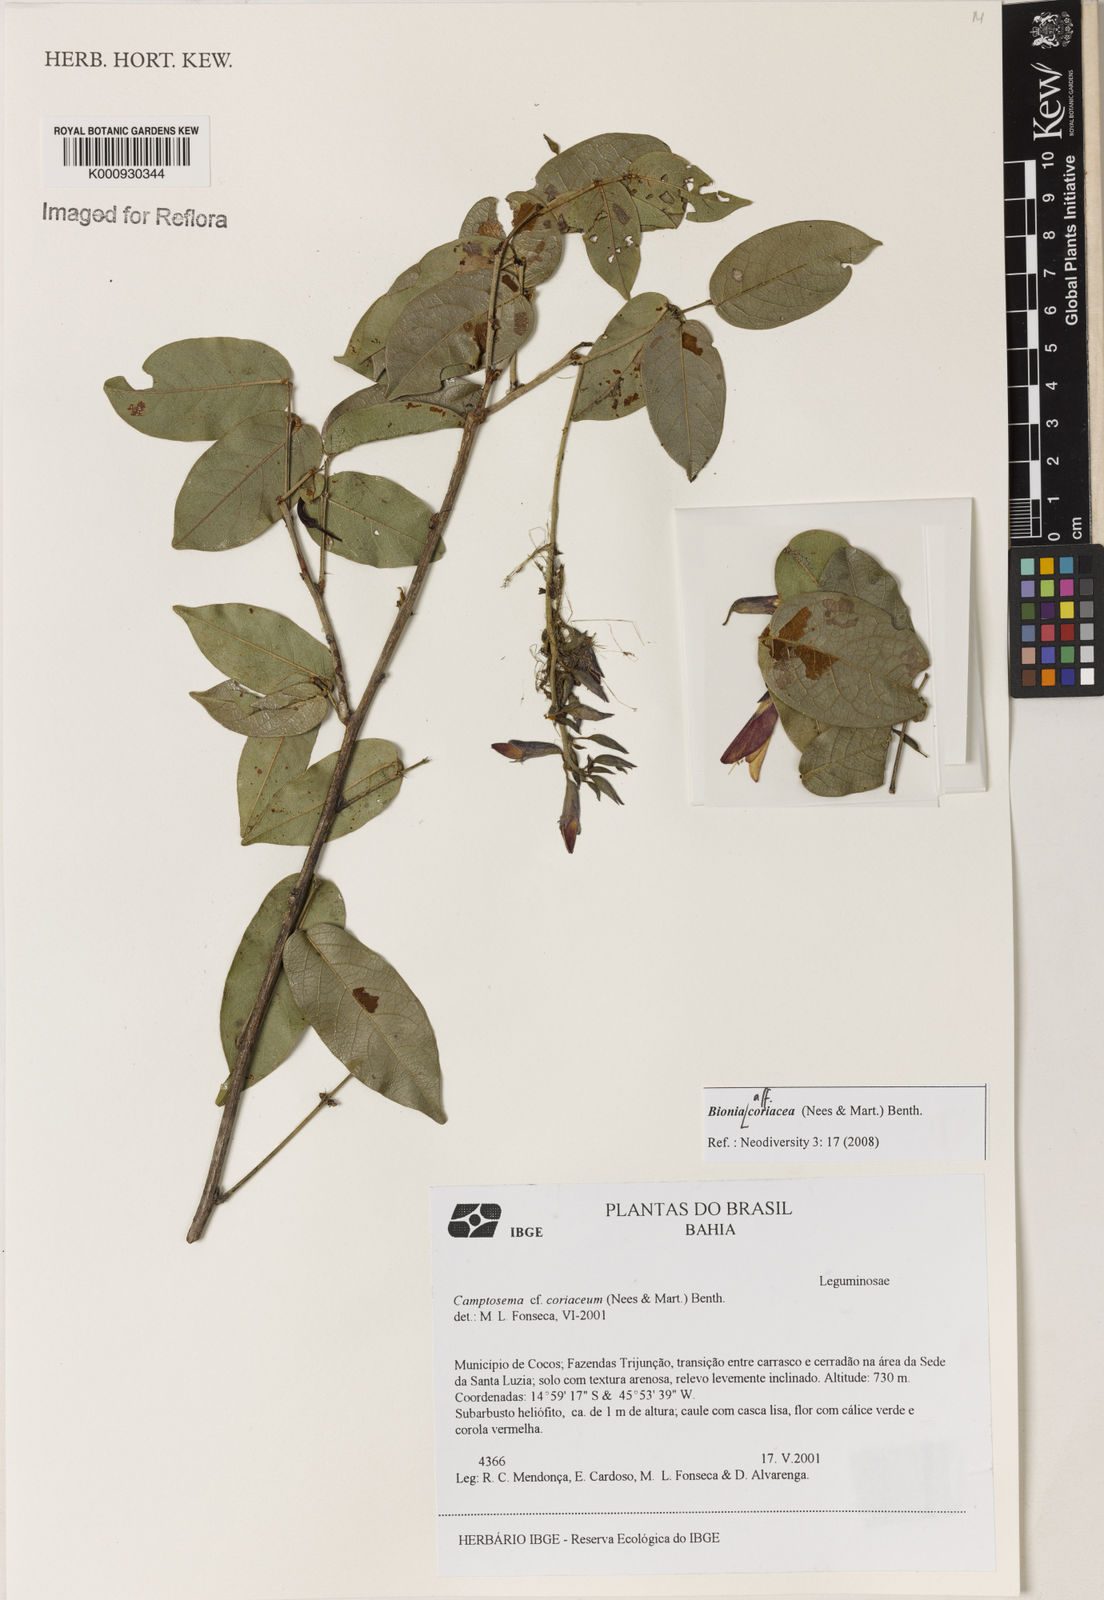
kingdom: Plantae
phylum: Tracheophyta
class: Magnoliopsida
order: Fabales
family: Fabaceae
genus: Camptosema
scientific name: Camptosema coriaceum
